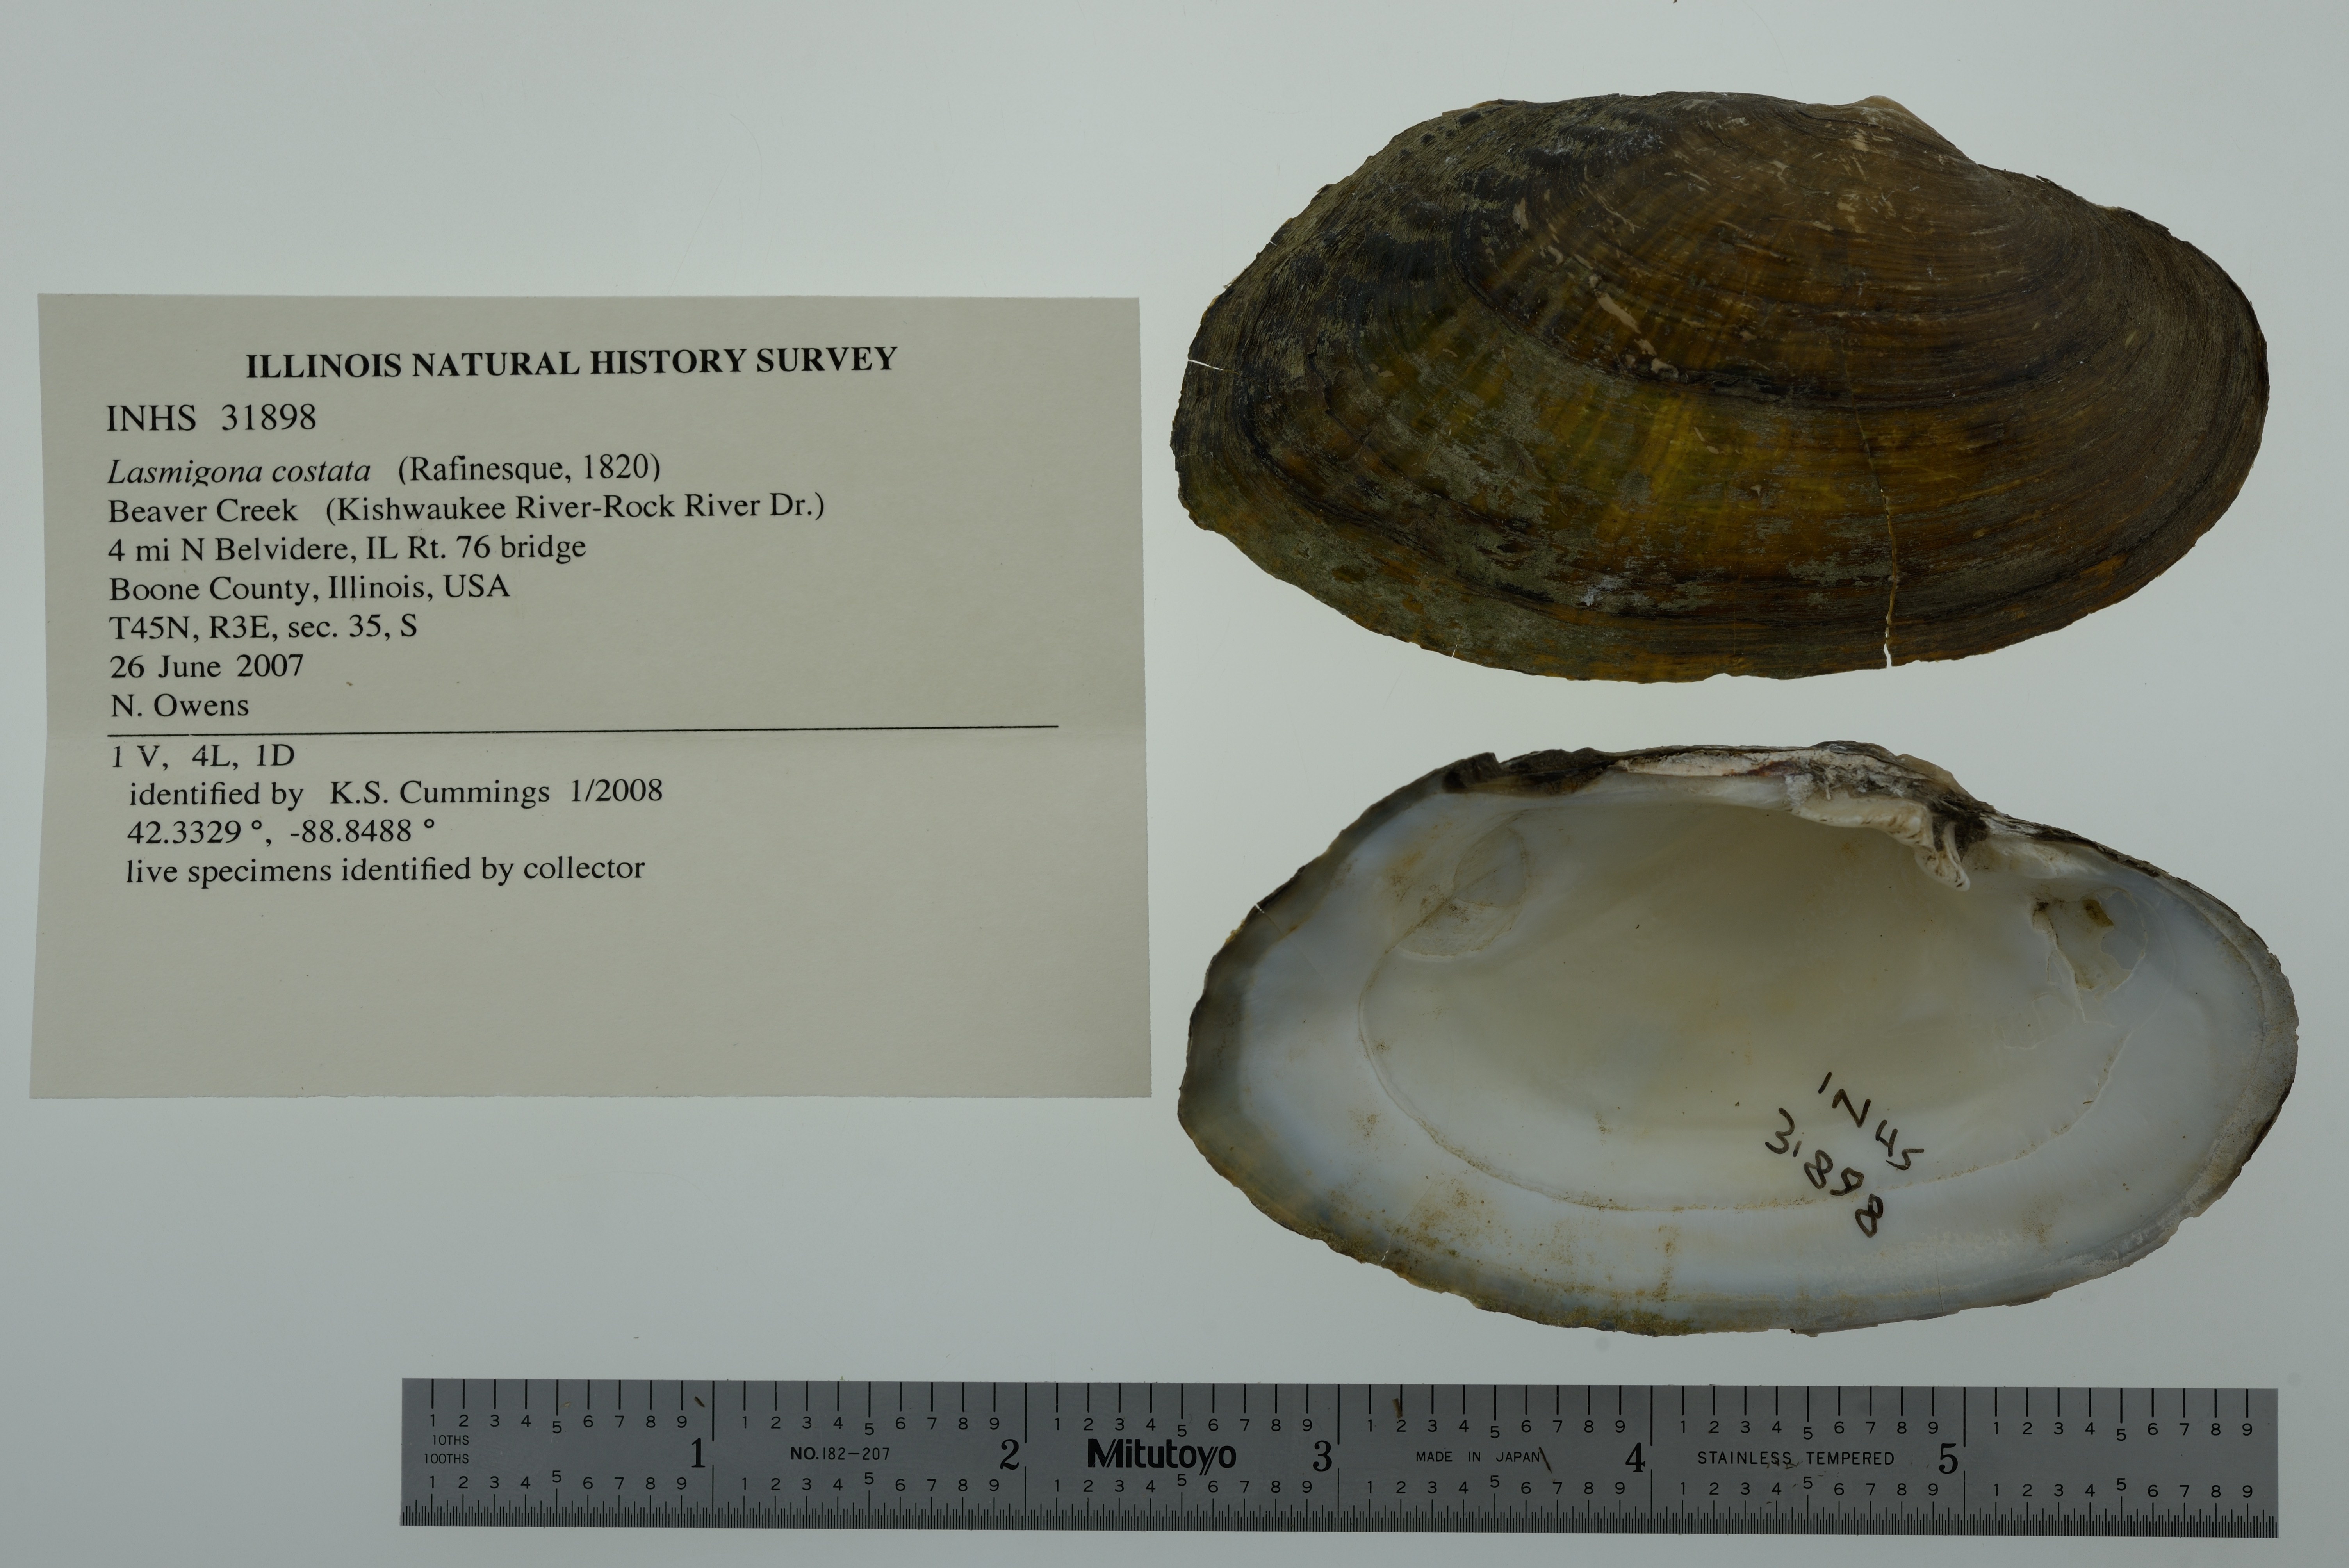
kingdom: Animalia
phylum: Mollusca
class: Bivalvia
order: Unionida
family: Unionidae
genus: Lasmigona
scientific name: Lasmigona costata
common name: Flutedshell
